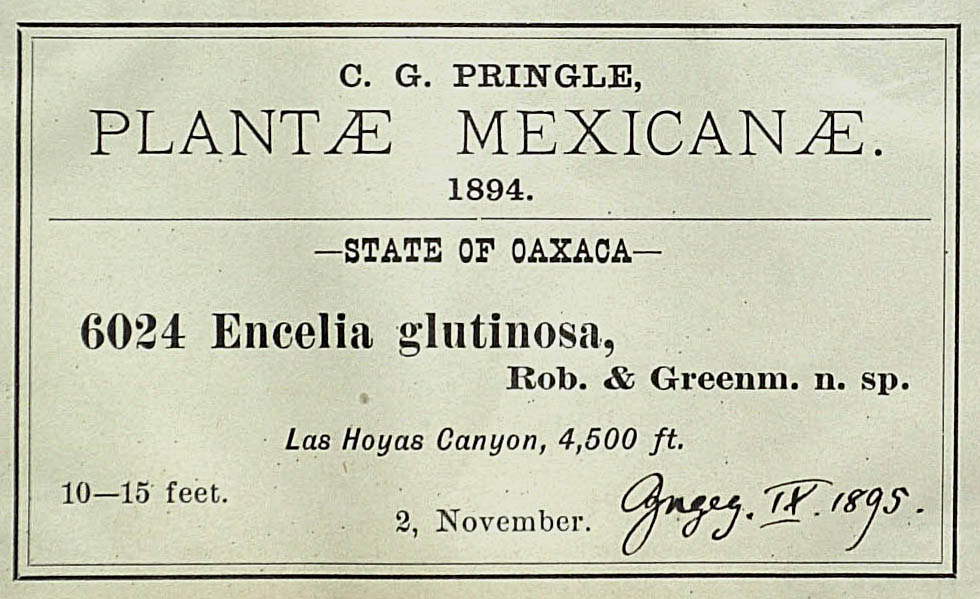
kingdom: Plantae
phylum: Tracheophyta
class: Magnoliopsida
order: Asterales
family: Asteraceae
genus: Flourensia
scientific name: Flourensia glutinosa
